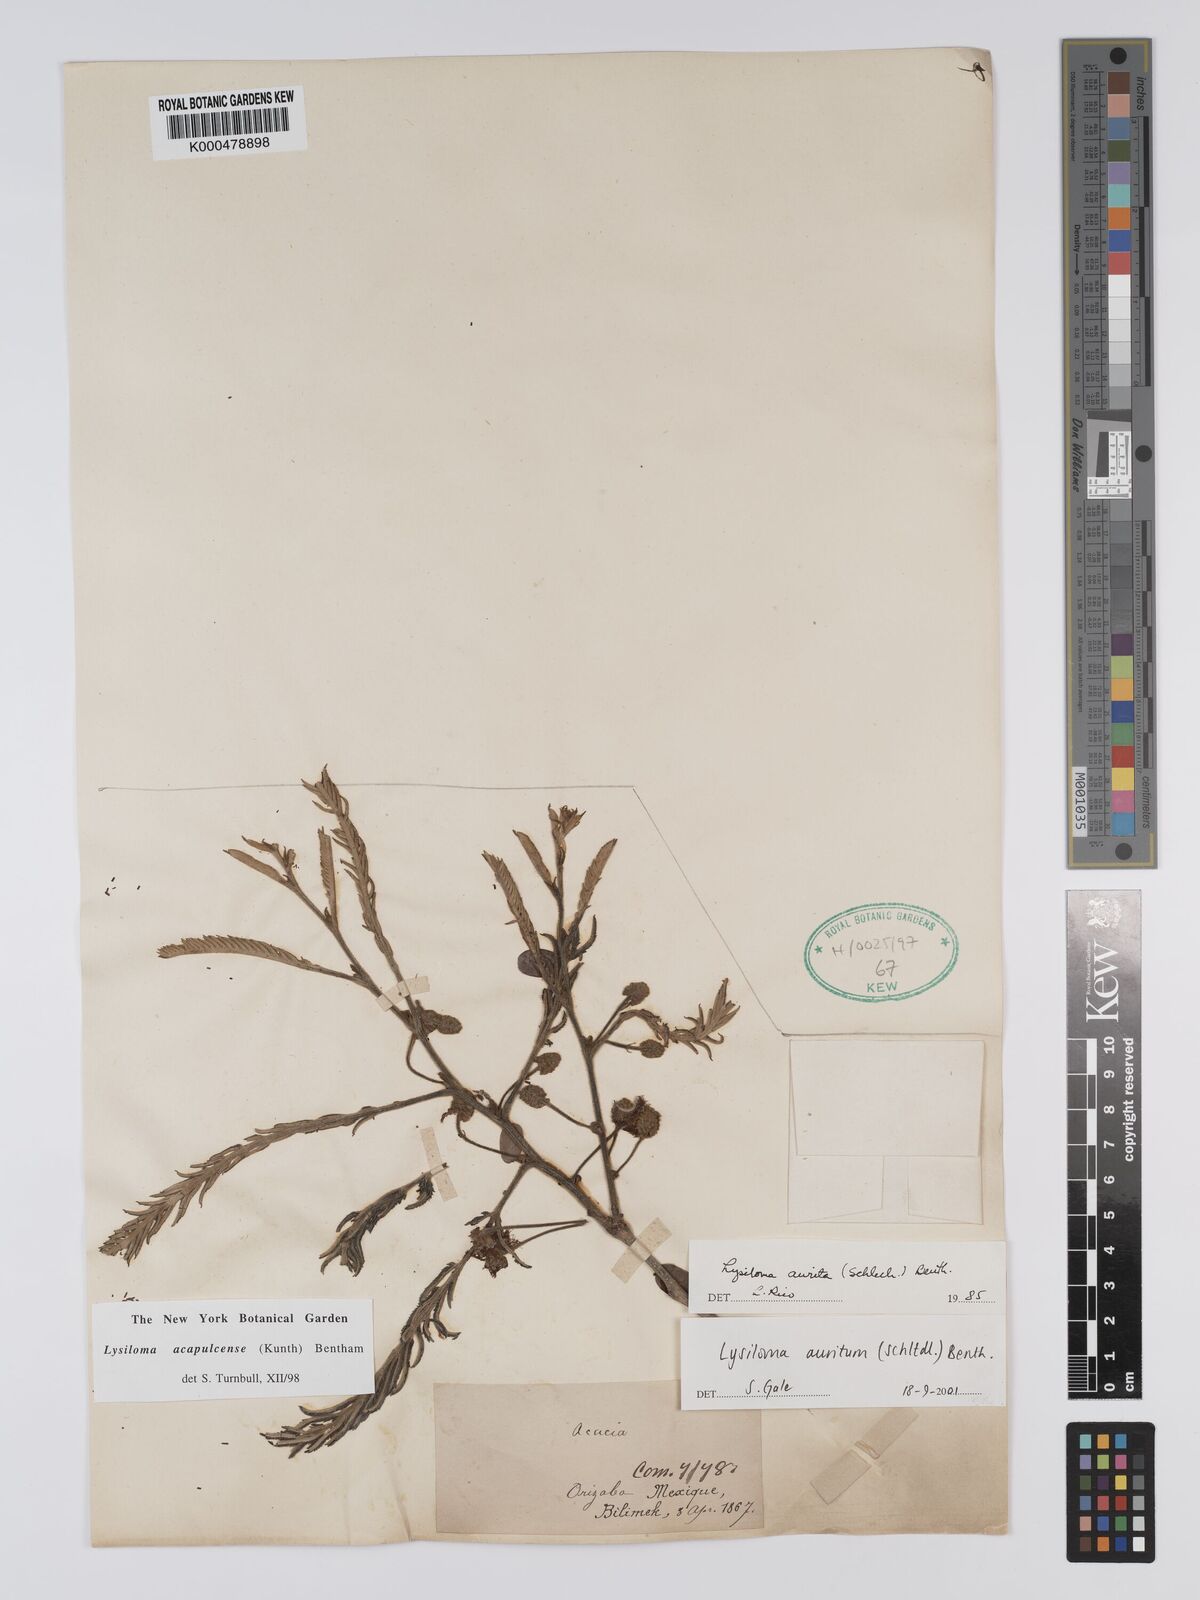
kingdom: Plantae
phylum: Tracheophyta
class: Magnoliopsida
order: Fabales
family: Fabaceae
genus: Lysiloma
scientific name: Lysiloma auritum
